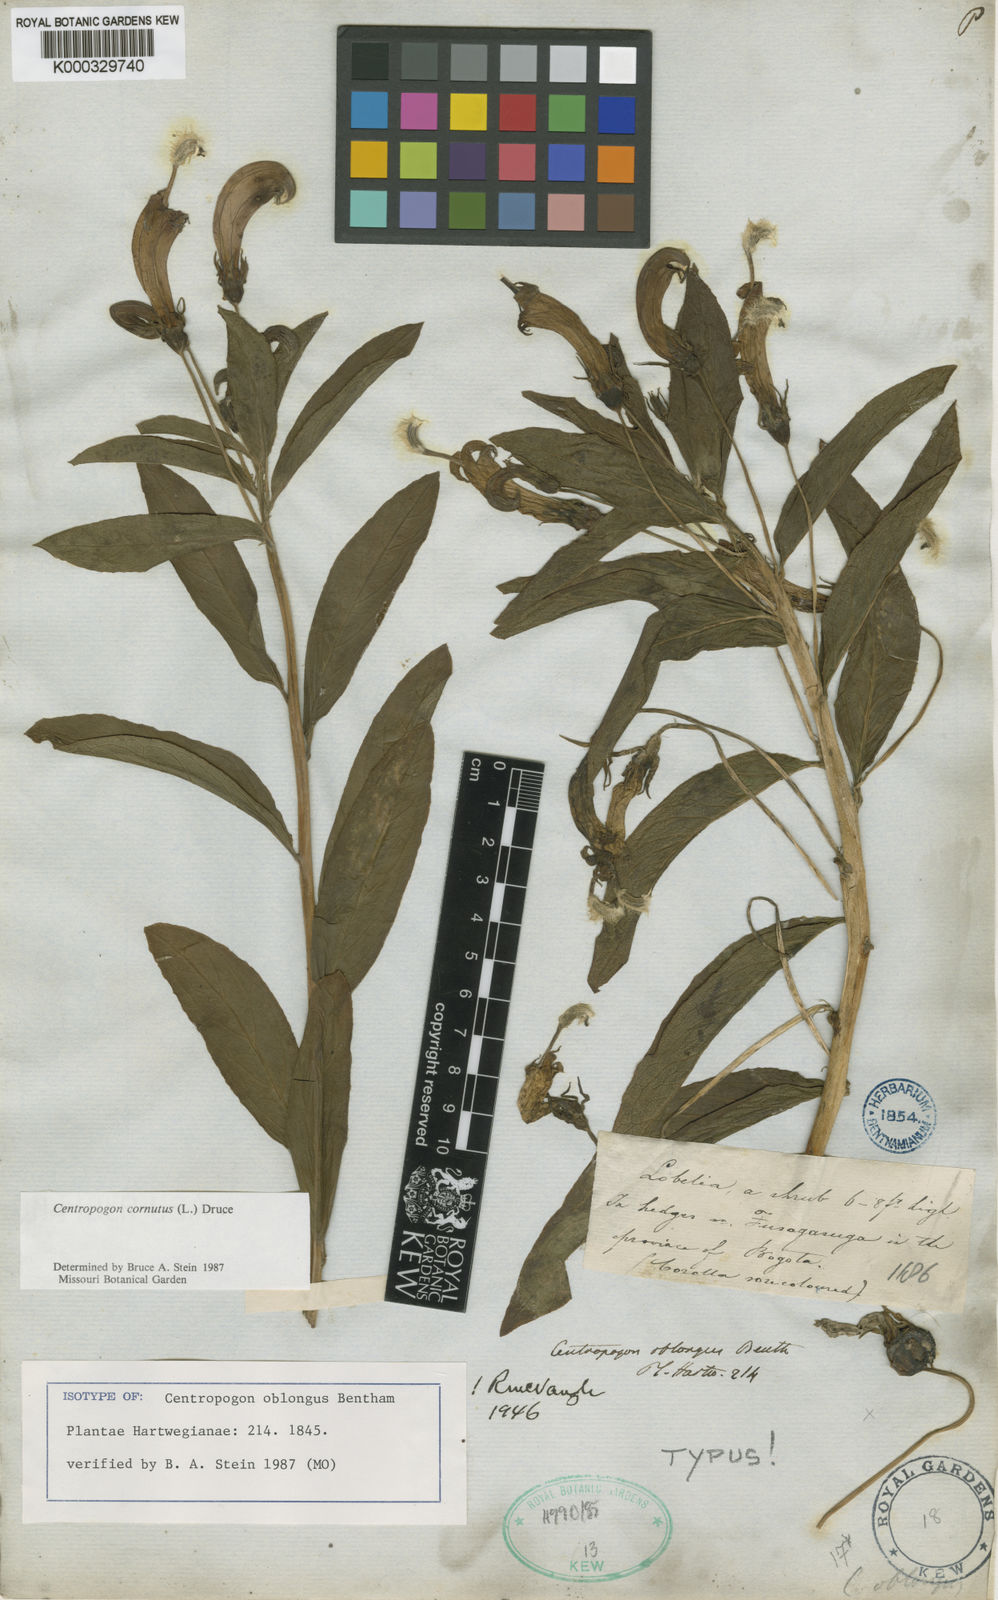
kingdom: Plantae
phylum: Tracheophyta
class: Magnoliopsida
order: Asterales
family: Campanulaceae
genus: Centropogon
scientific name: Centropogon cornutus
